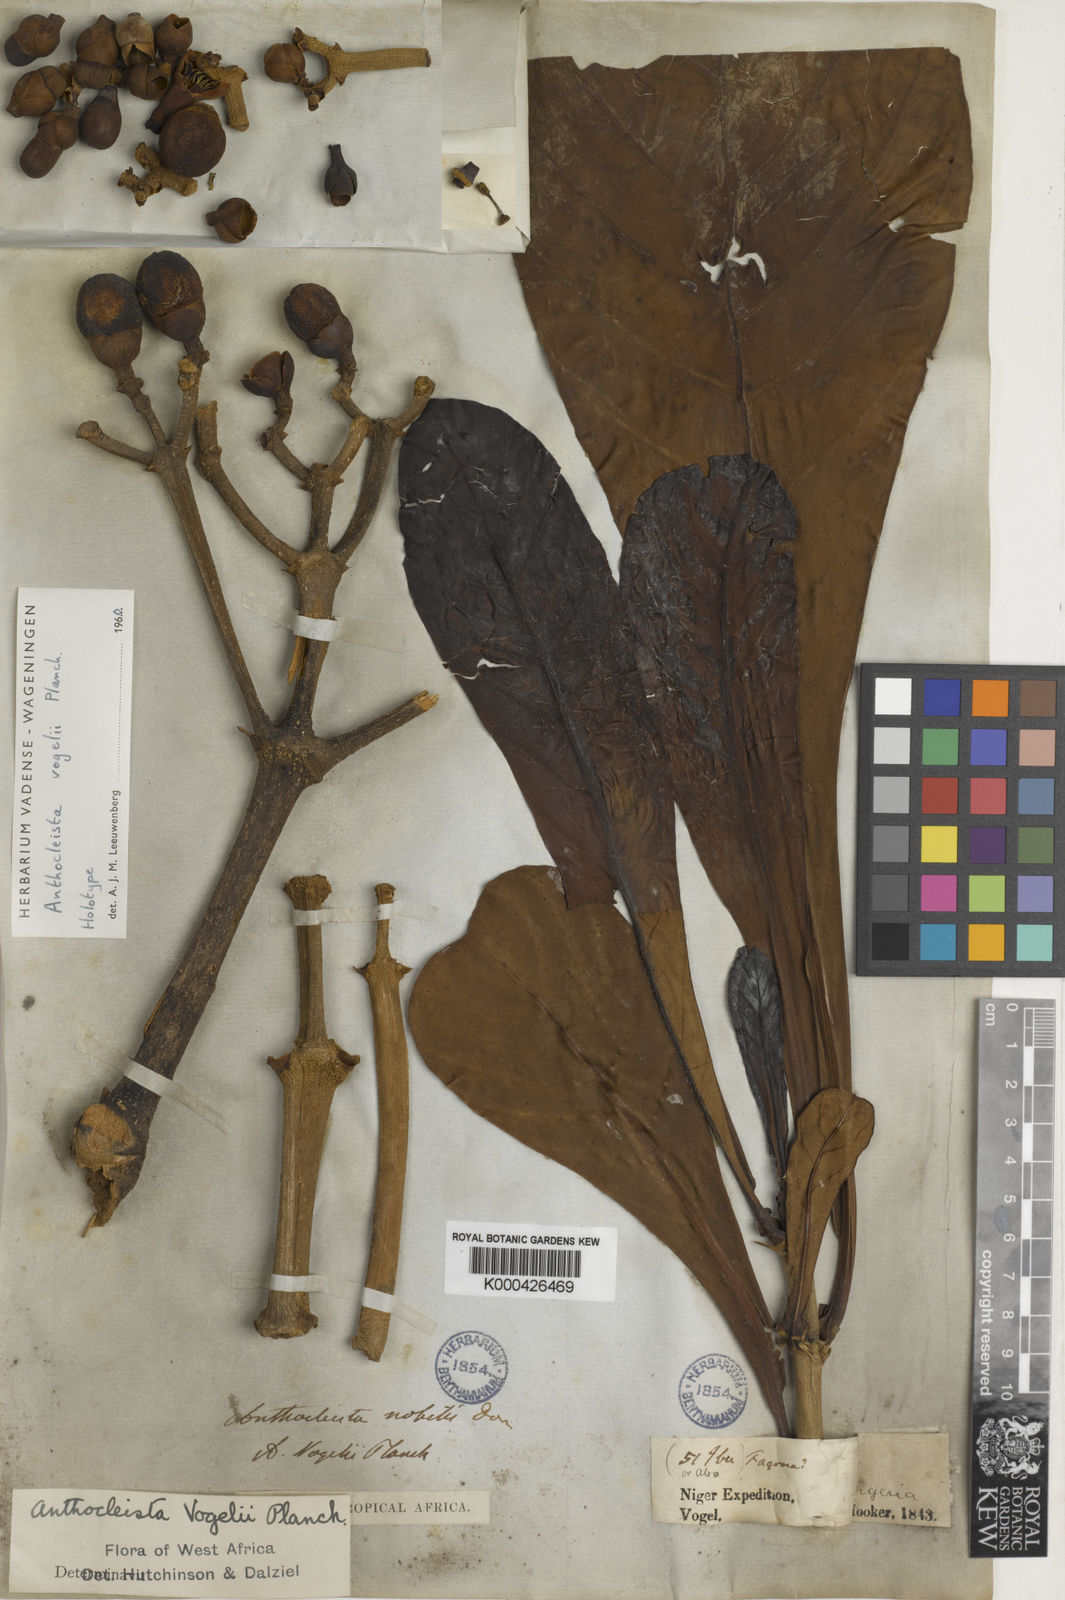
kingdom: Plantae
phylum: Tracheophyta
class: Magnoliopsida
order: Gentianales
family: Gentianaceae
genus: Anthocleista
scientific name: Anthocleista vogelii
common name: Cabbage tree
